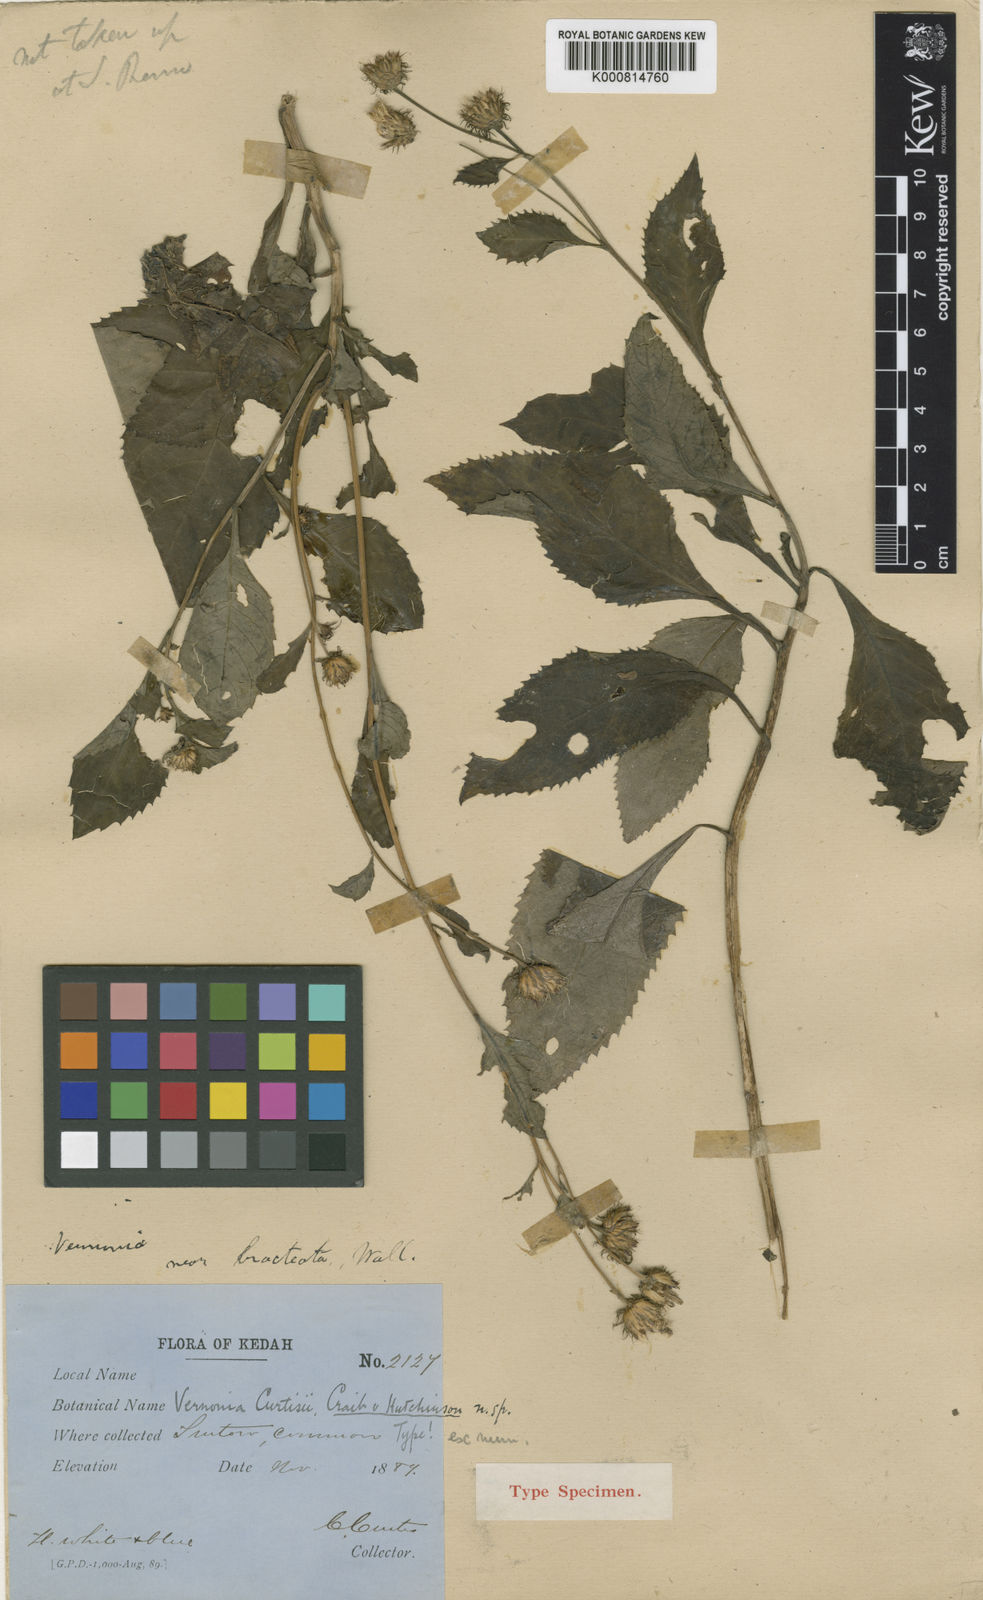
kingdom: Plantae
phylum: Tracheophyta
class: Magnoliopsida
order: Asterales
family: Asteraceae
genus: Koyamasia
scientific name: Koyamasia curtisii
